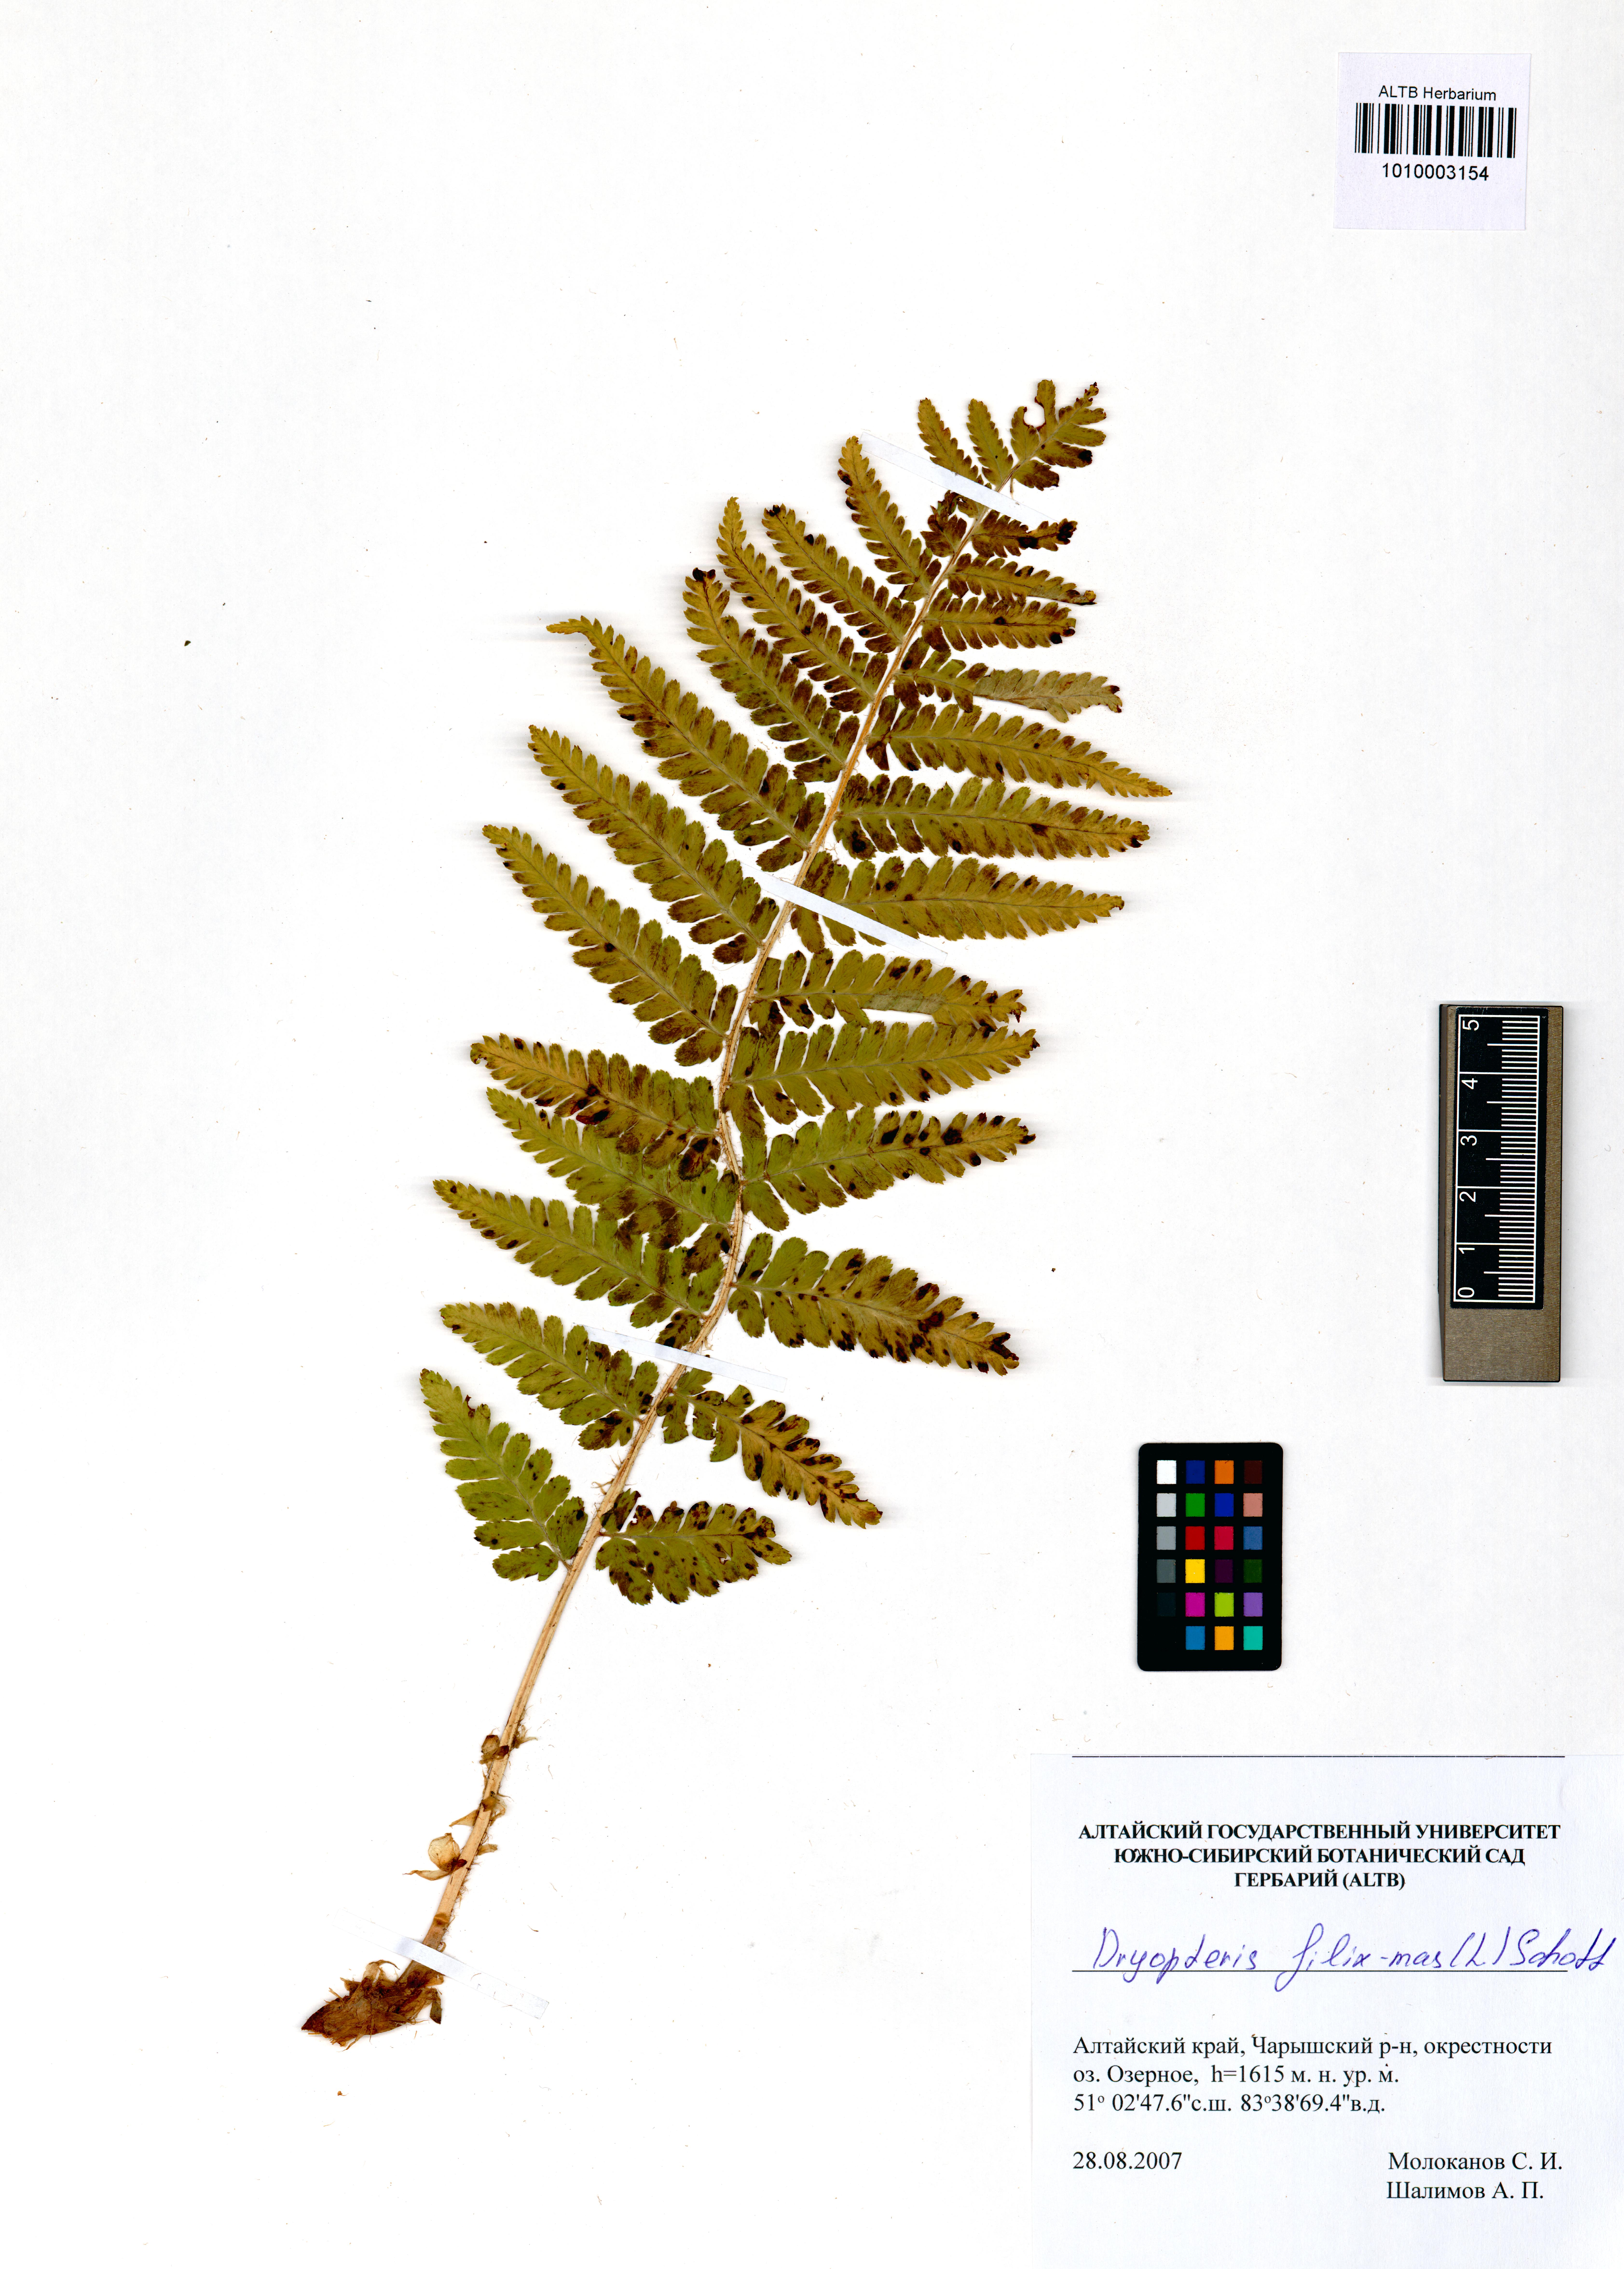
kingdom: Plantae
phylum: Tracheophyta
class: Polypodiopsida
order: Polypodiales
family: Dryopteridaceae
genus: Dryopteris
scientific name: Dryopteris filix-mas
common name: Male fern
